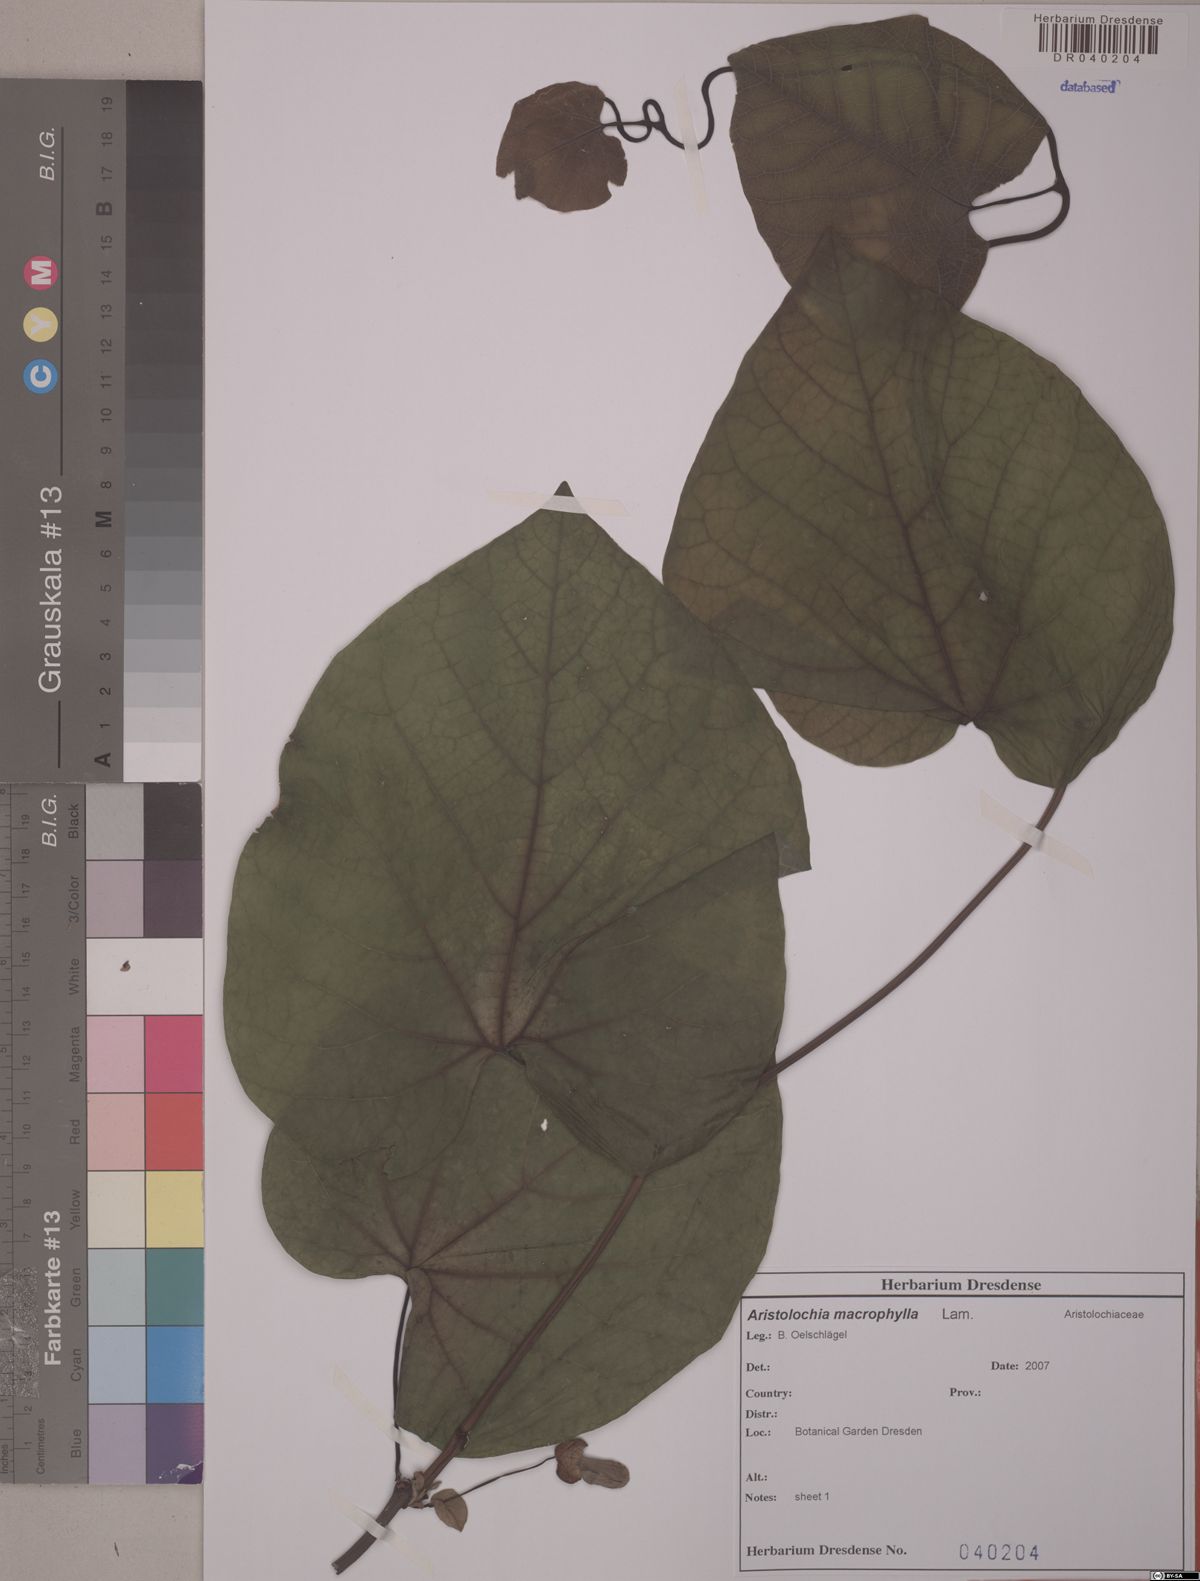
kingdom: Plantae
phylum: Tracheophyta
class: Magnoliopsida
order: Piperales
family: Aristolochiaceae
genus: Isotrema
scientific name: Isotrema macrophyllum
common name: Dutchman's-pipe
